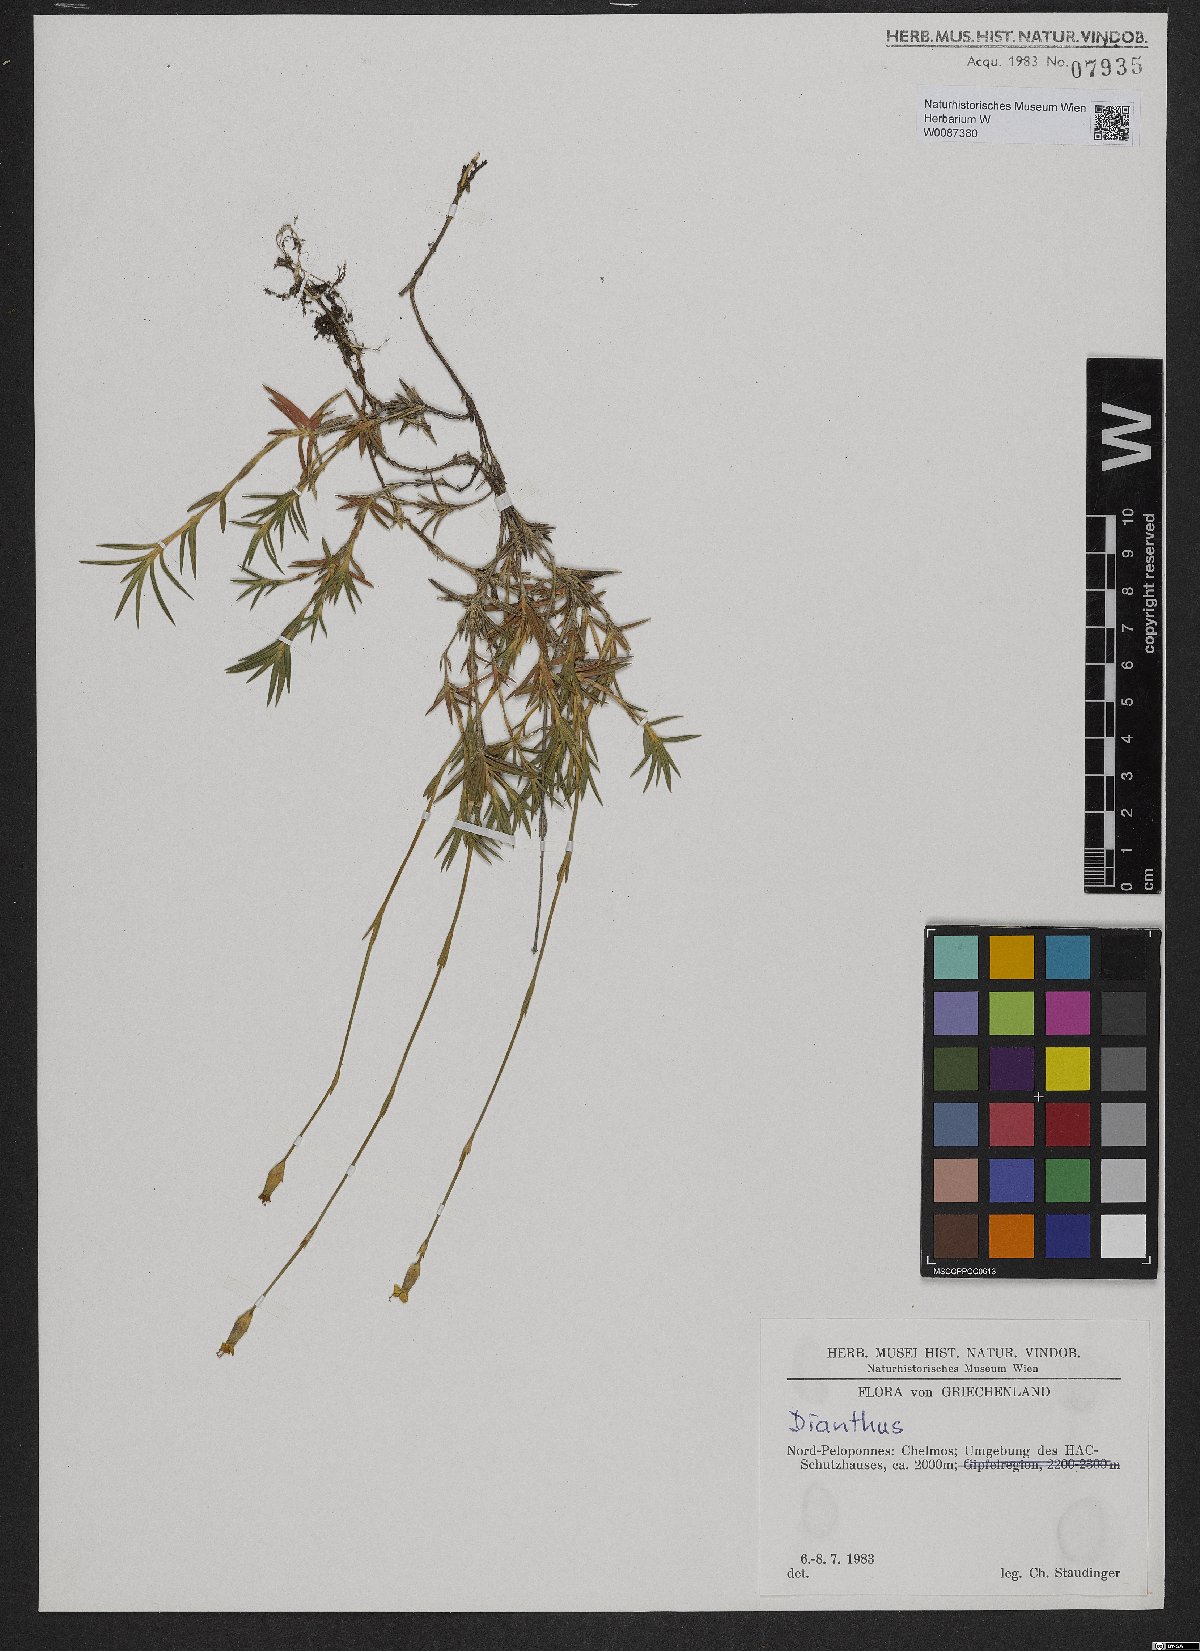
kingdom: Plantae
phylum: Tracheophyta
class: Magnoliopsida
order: Caryophyllales
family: Caryophyllaceae
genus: Dianthus
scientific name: Dianthus
